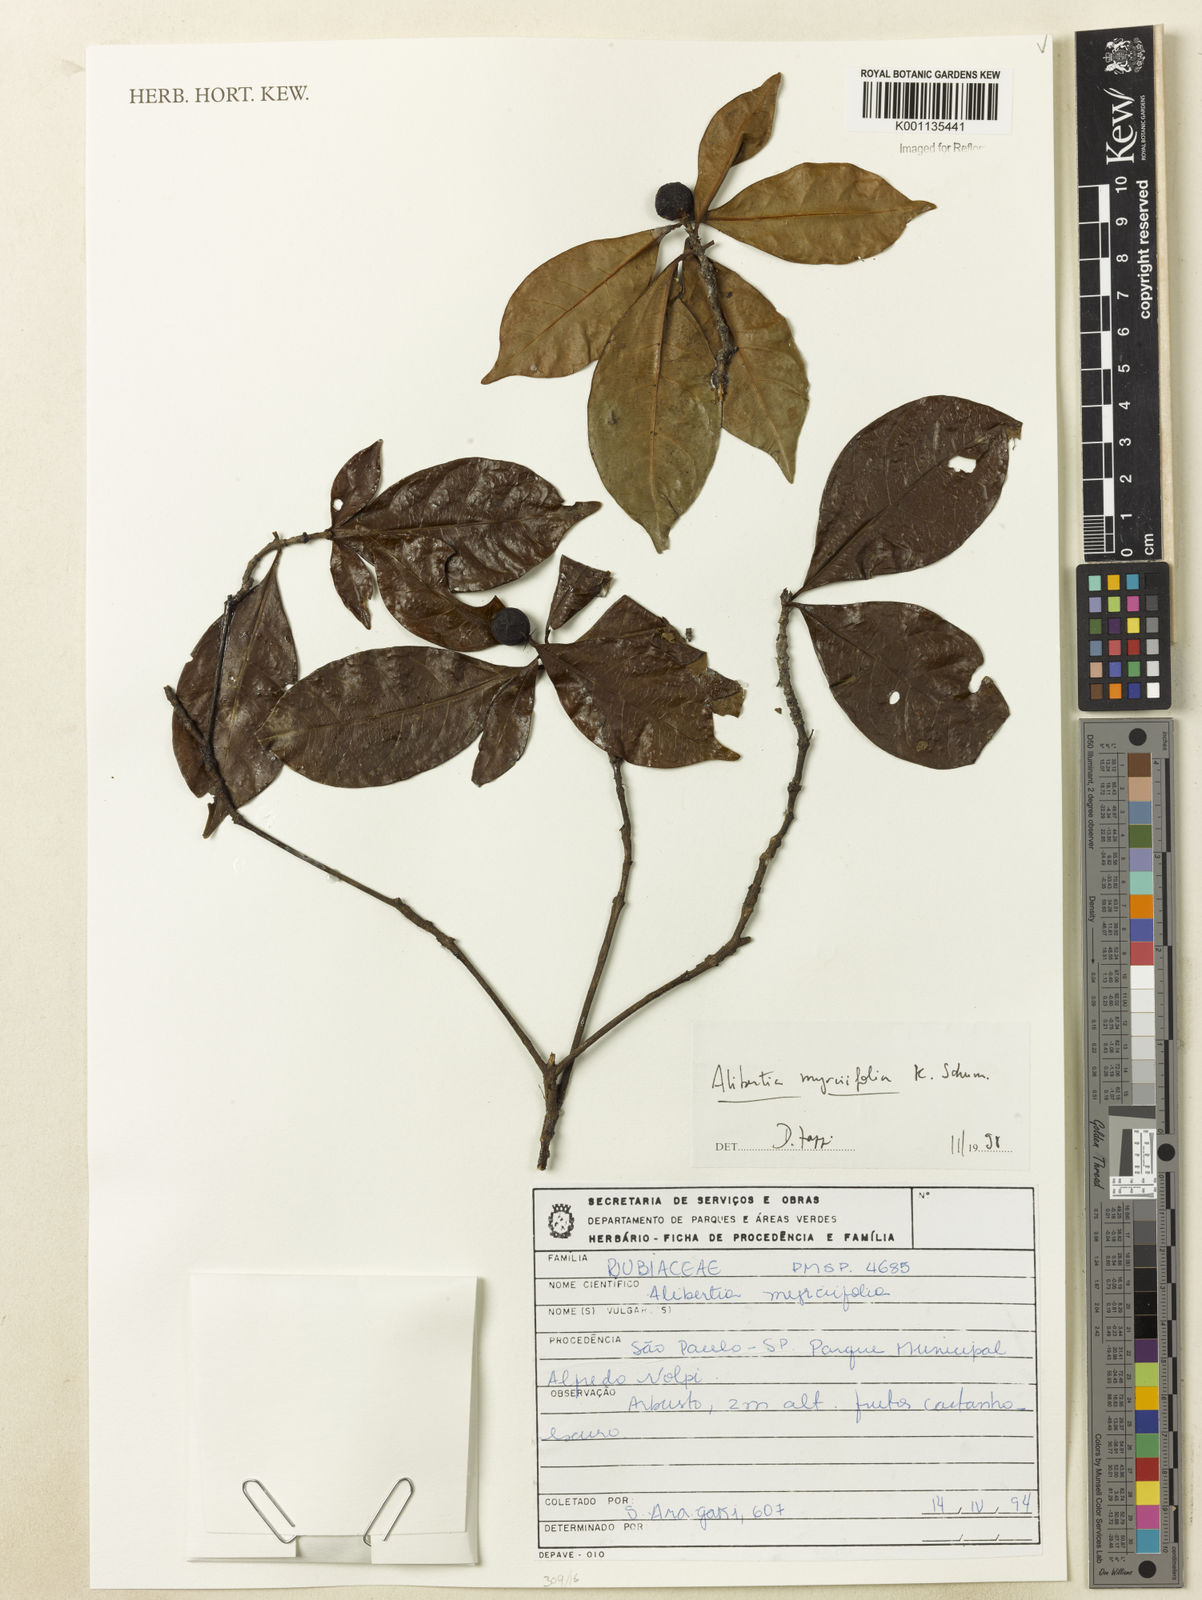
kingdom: Plantae
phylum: Tracheophyta
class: Magnoliopsida
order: Gentianales
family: Rubiaceae
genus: Cordiera
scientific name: Cordiera myrciifolia
